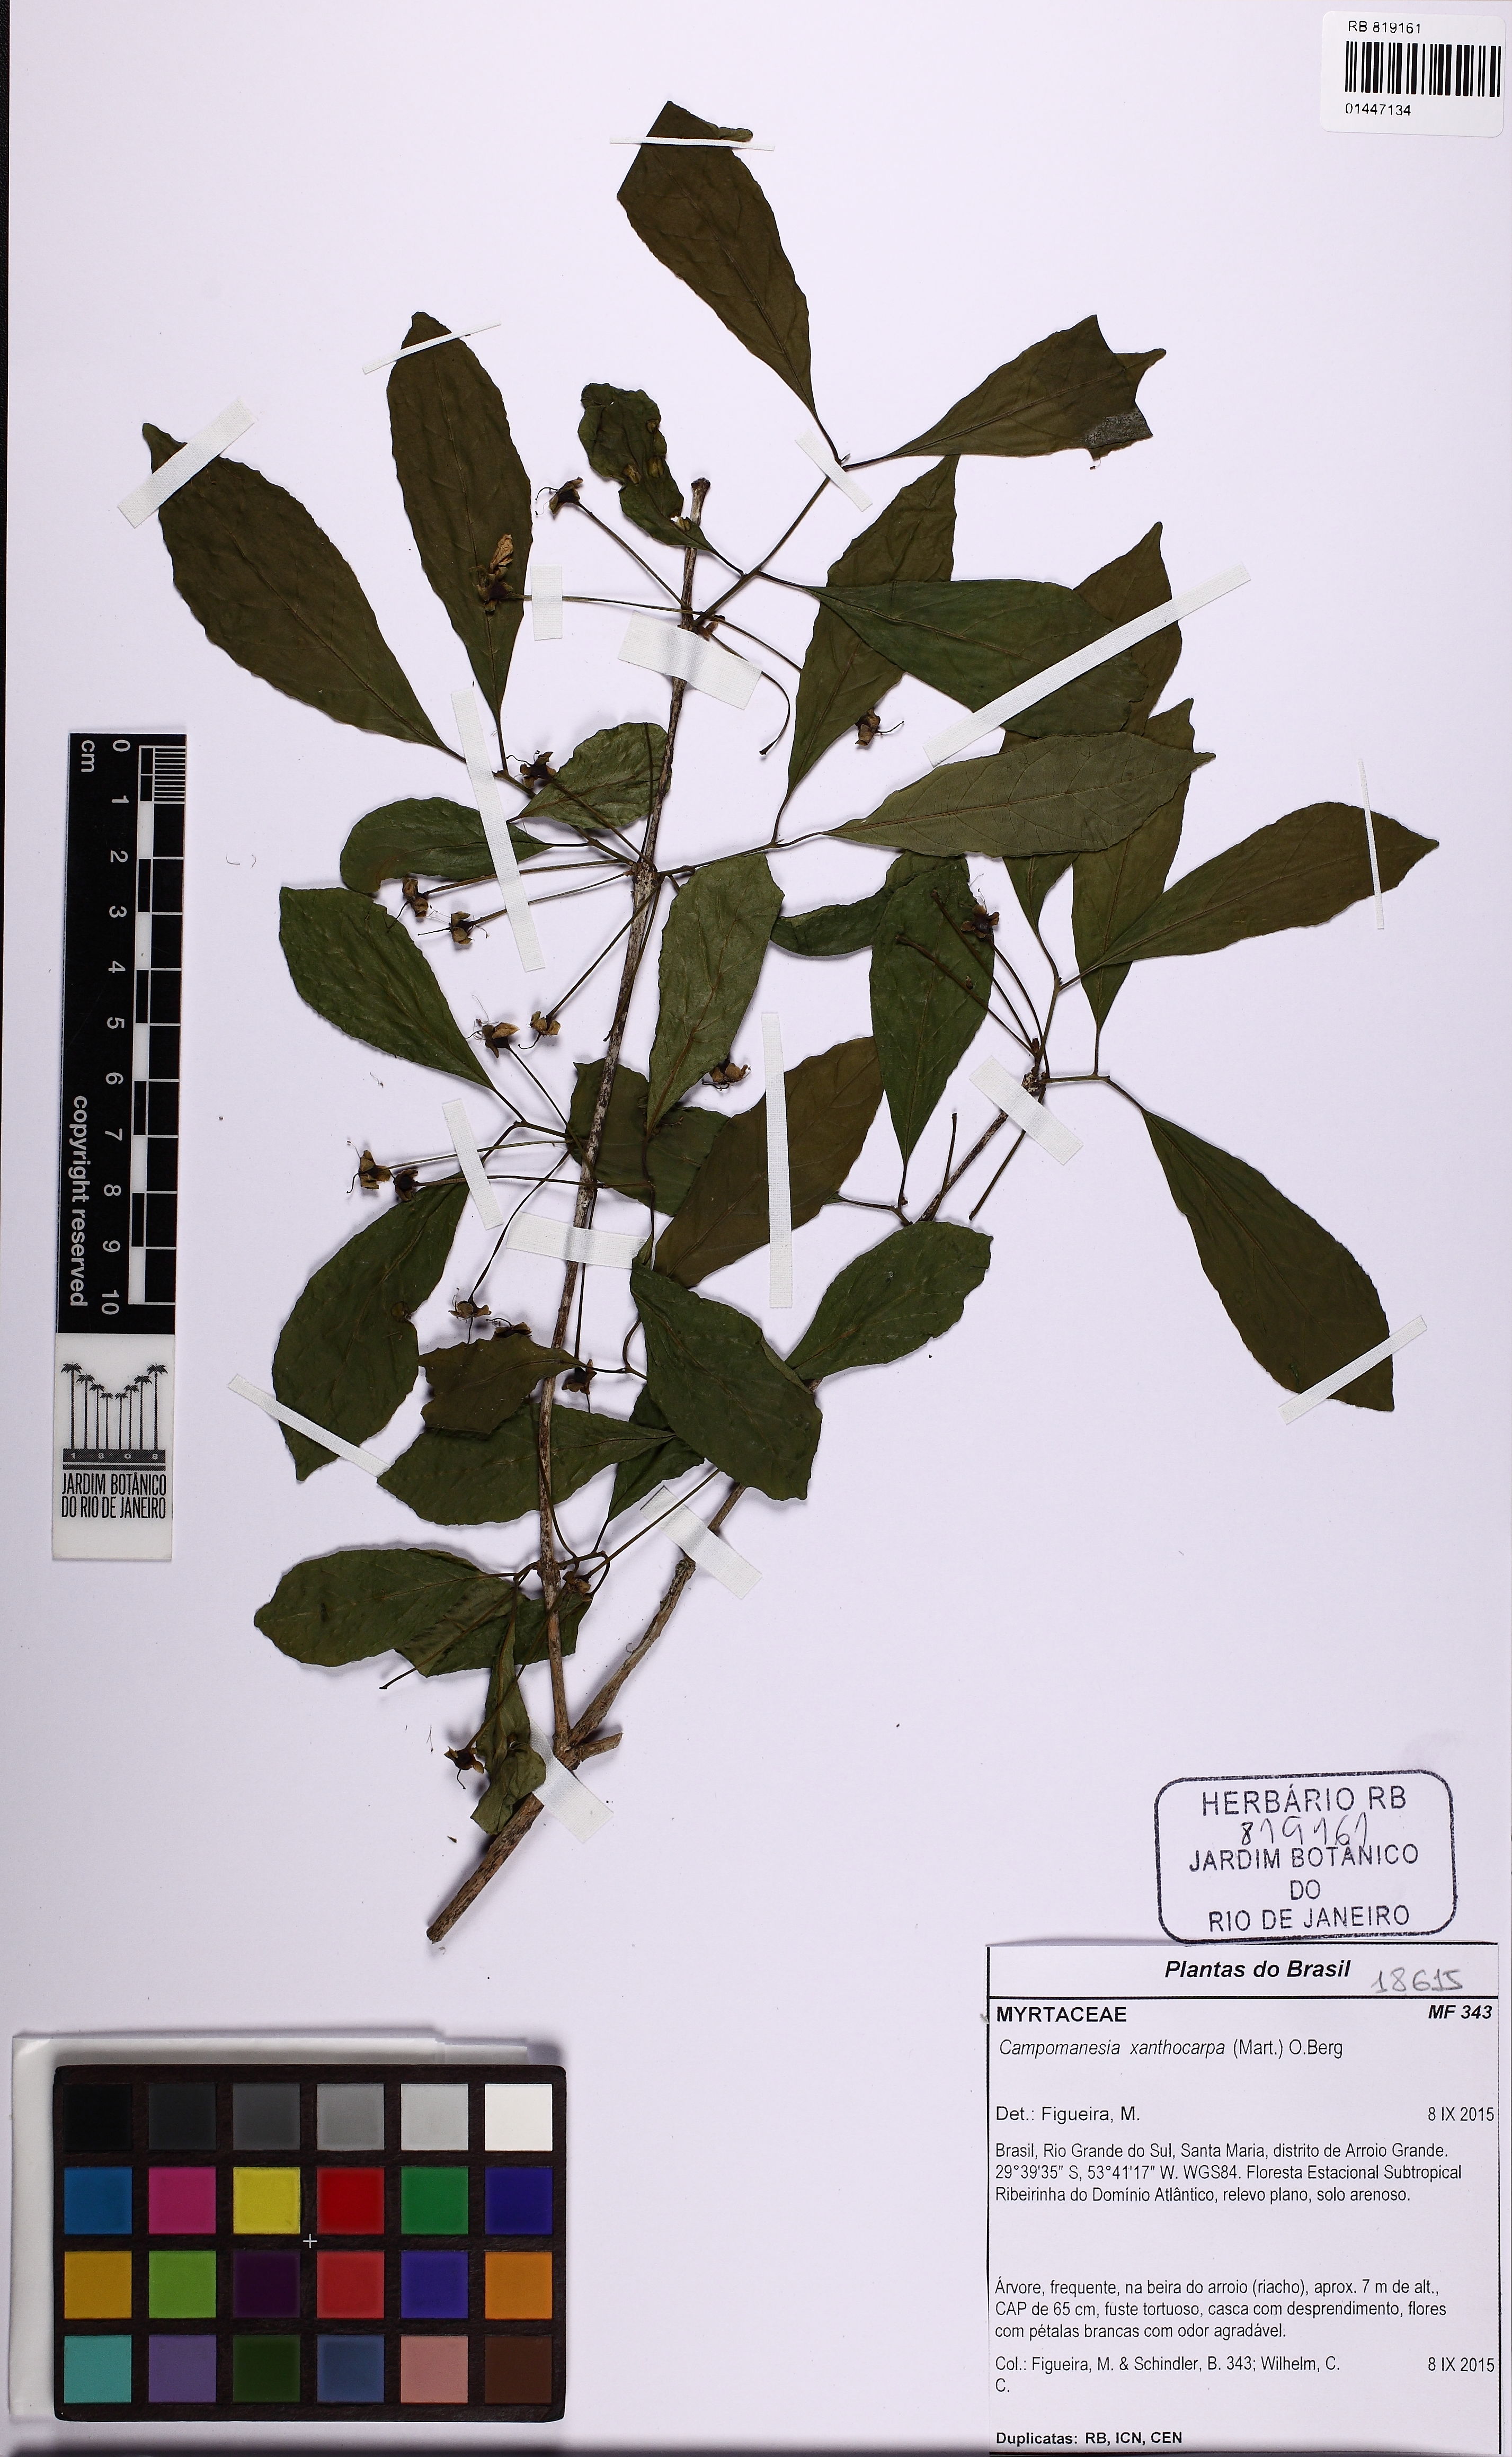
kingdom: Plantae
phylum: Tracheophyta
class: Magnoliopsida
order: Myrtales
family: Myrtaceae
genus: Campomanesia
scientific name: Campomanesia xanthocarpa
